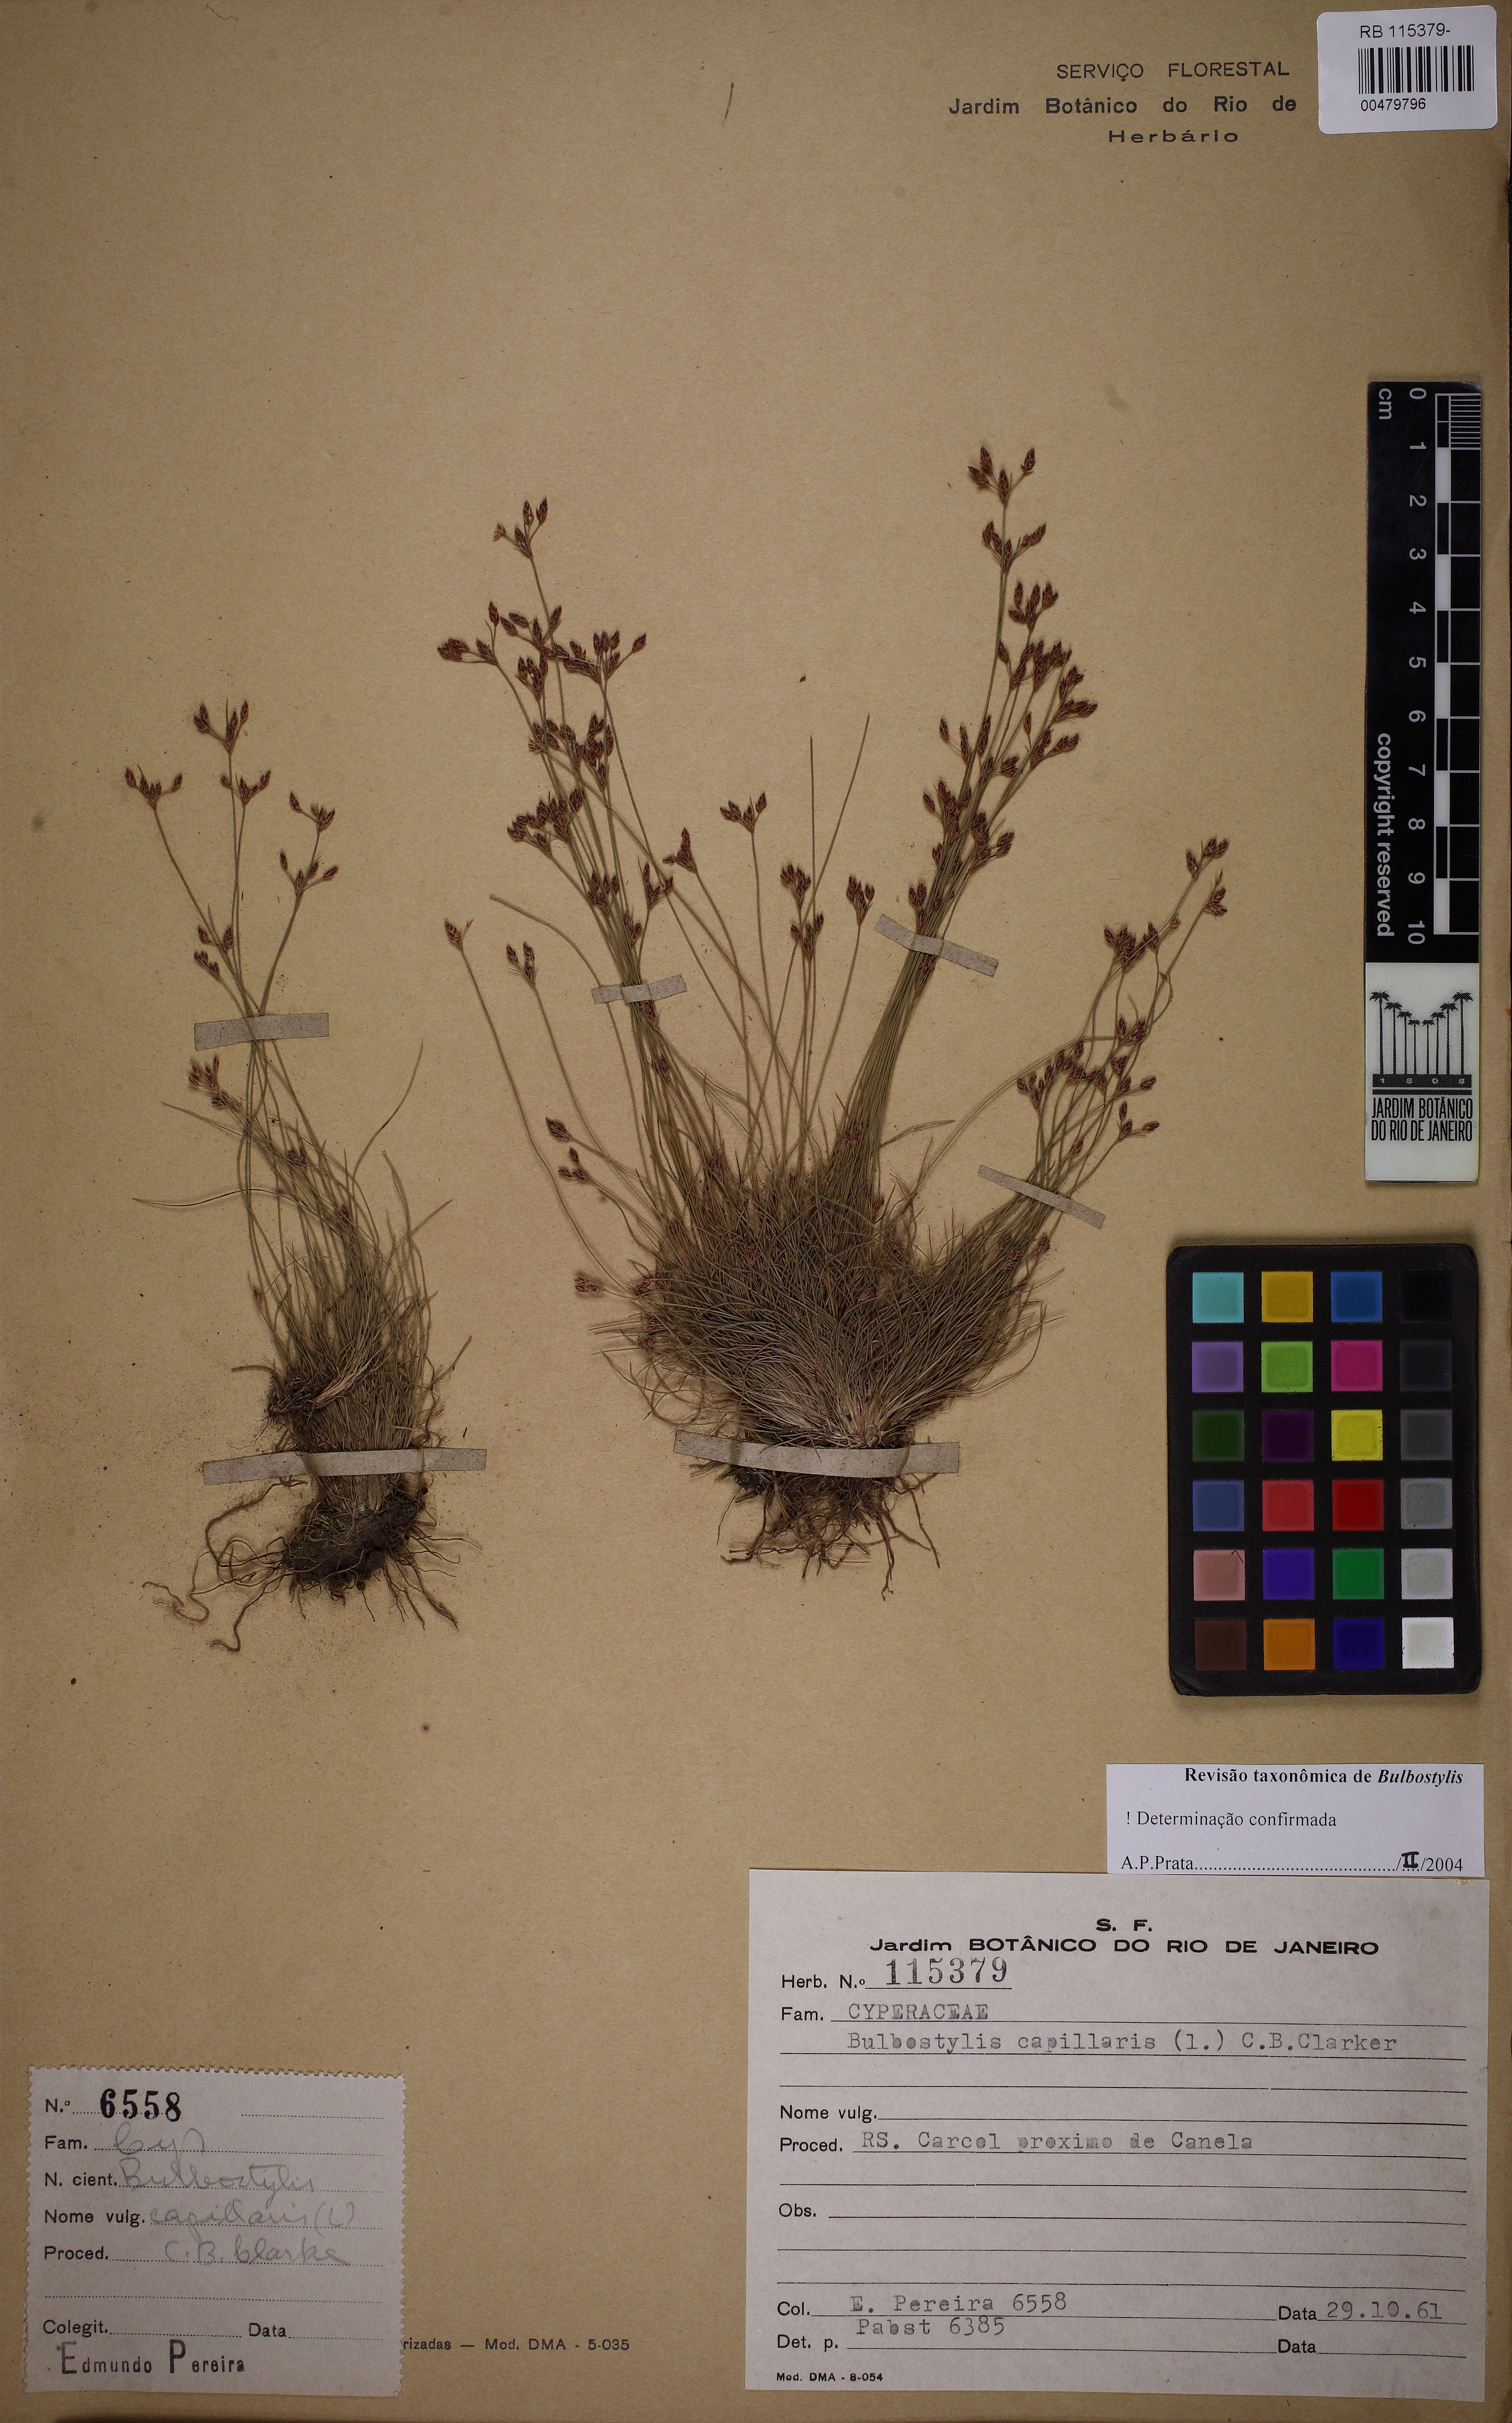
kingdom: Plantae
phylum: Tracheophyta
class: Liliopsida
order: Poales
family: Cyperaceae
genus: Bulbostylis
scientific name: Bulbostylis capillaris
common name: Densetuft hairsedge
